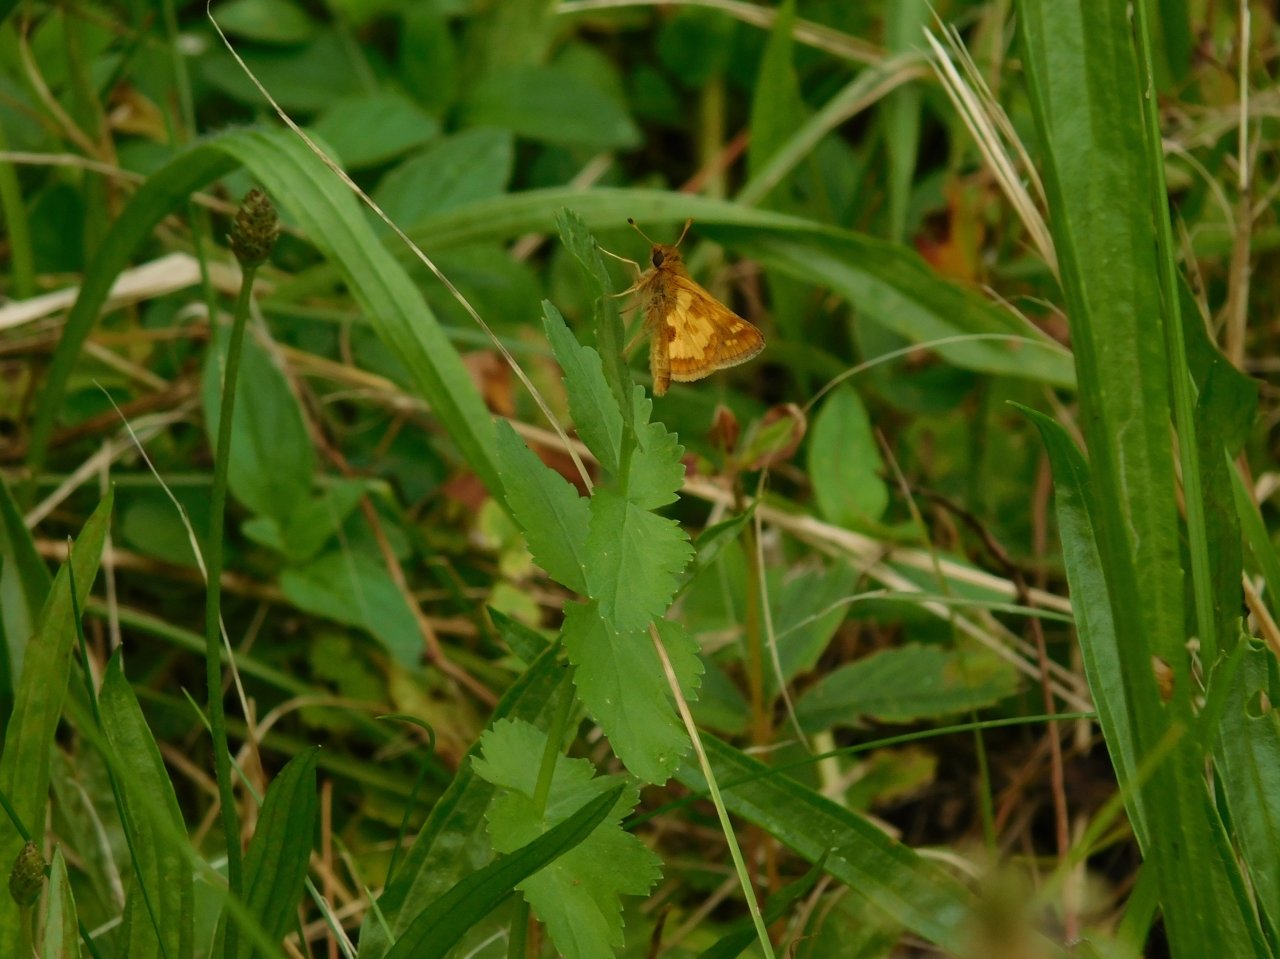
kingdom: Animalia
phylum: Arthropoda
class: Insecta
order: Lepidoptera
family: Hesperiidae
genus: Polites
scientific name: Polites coras
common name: Peck's Skipper
